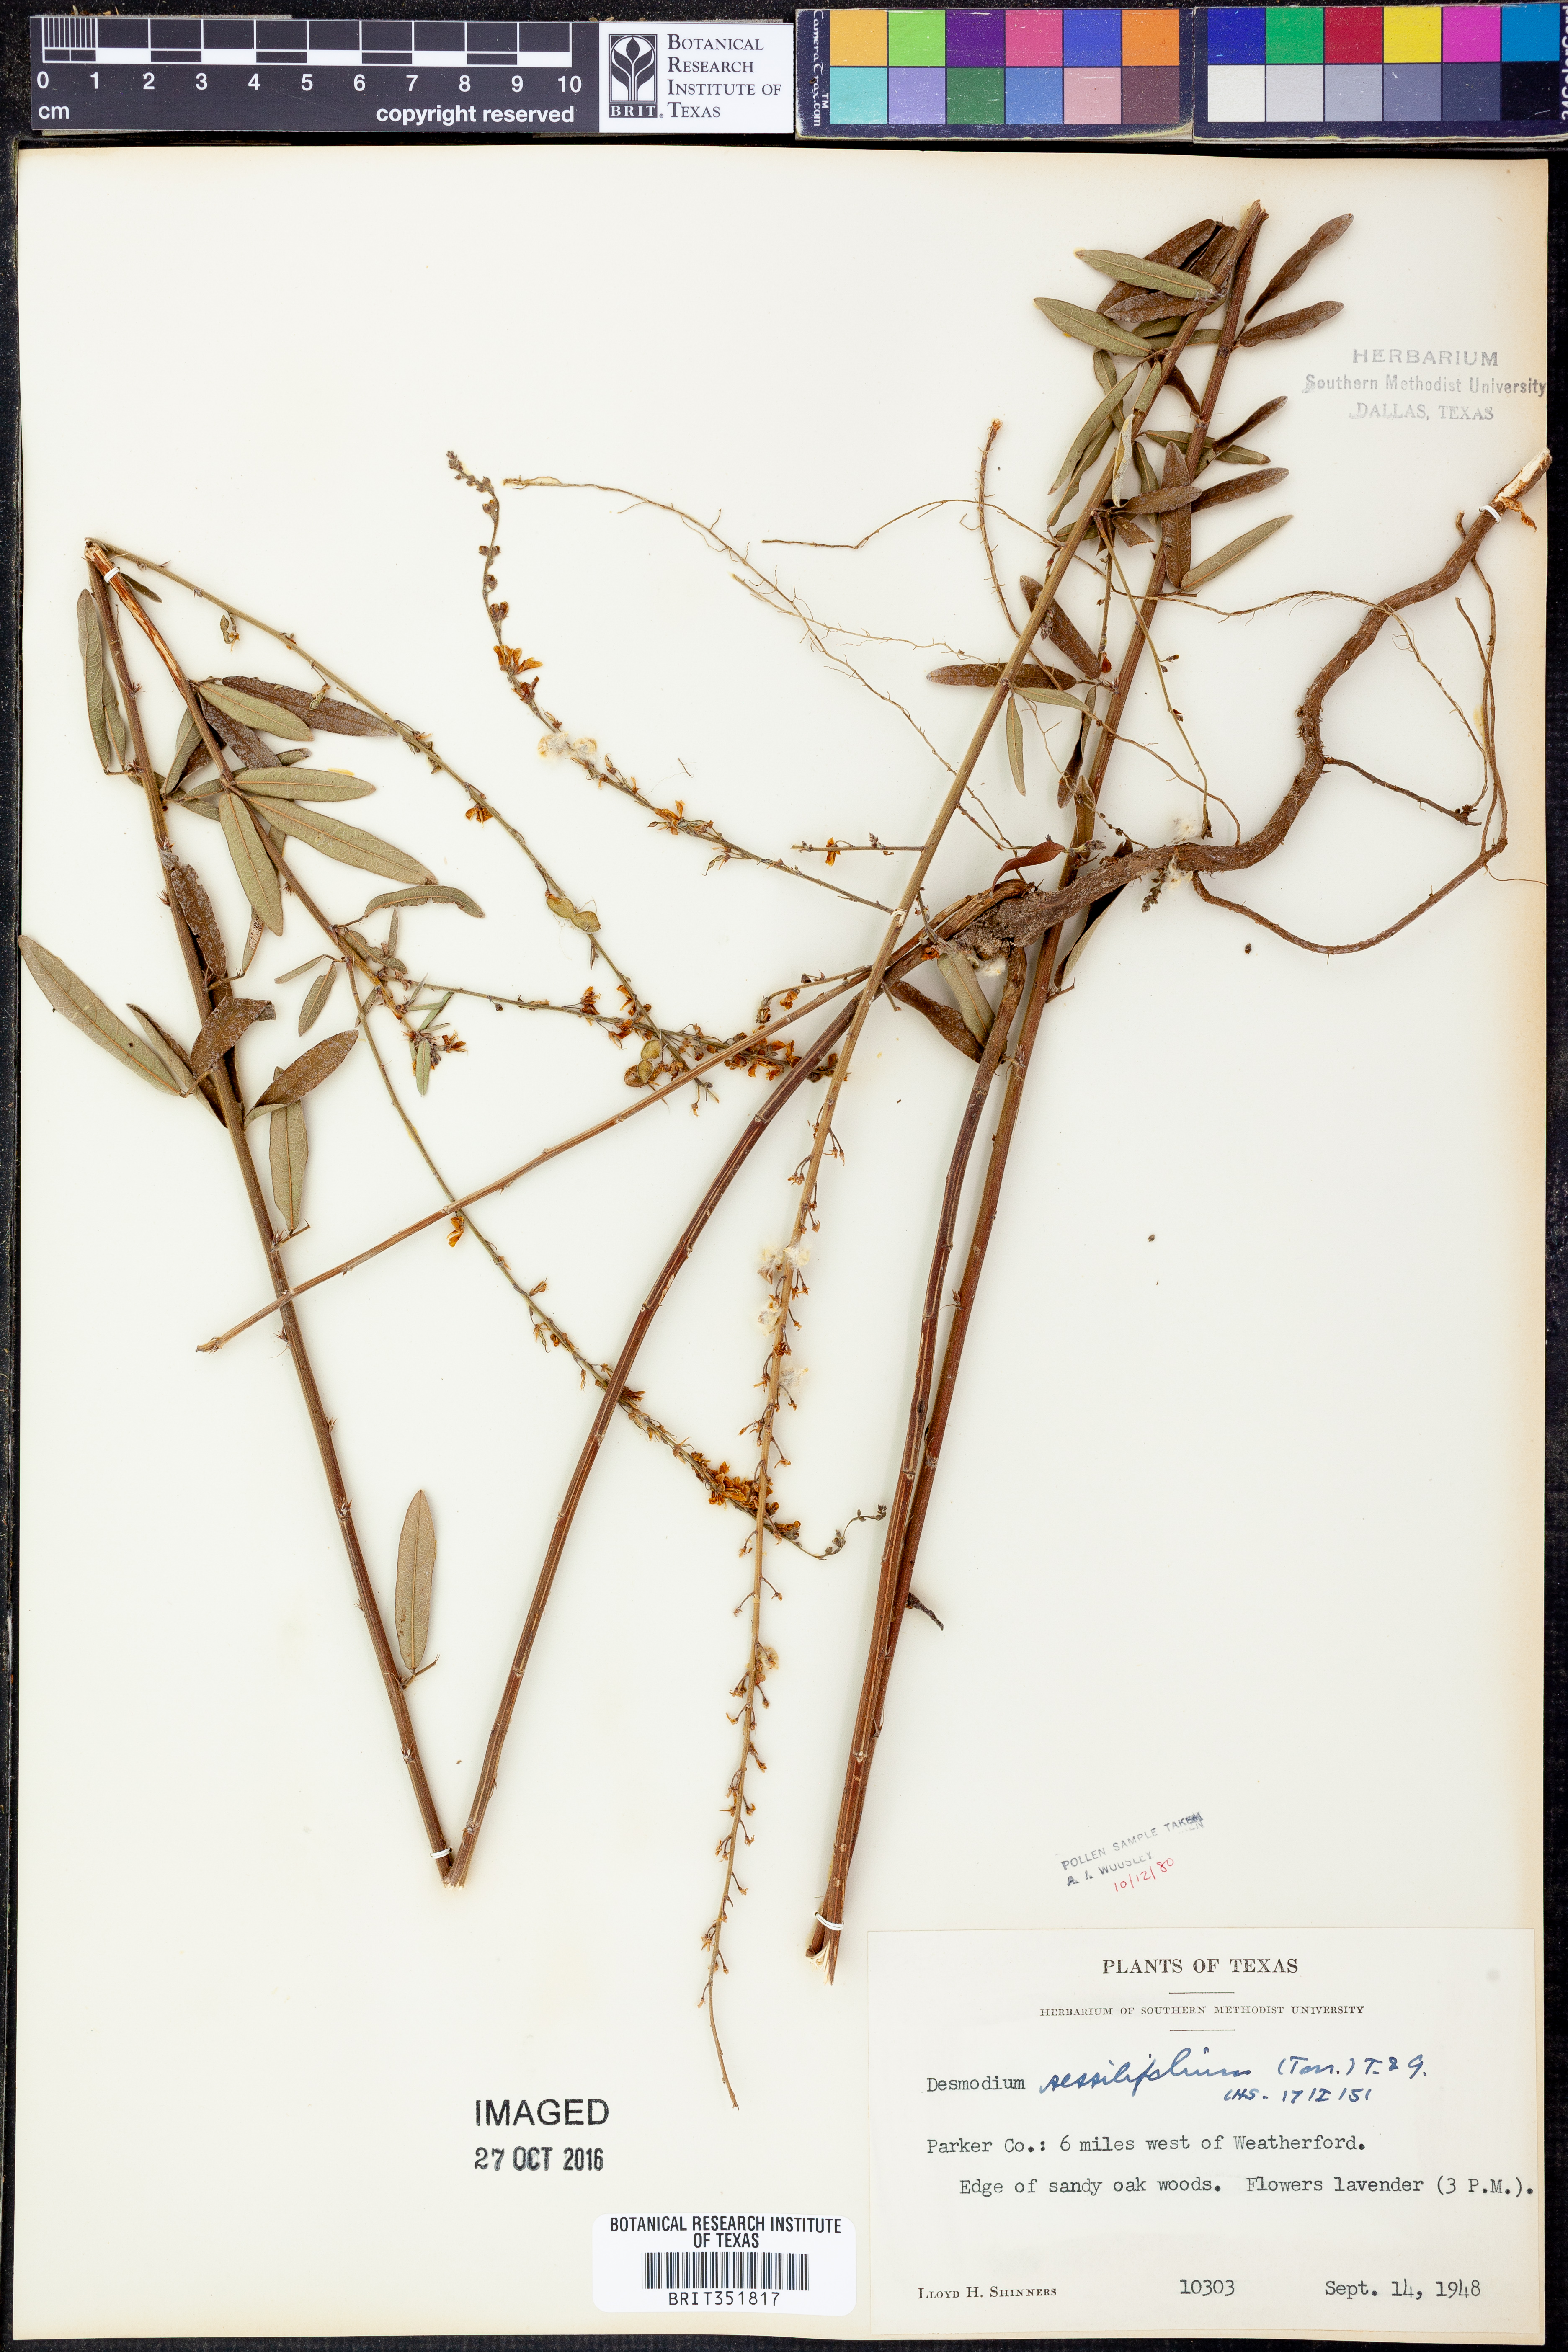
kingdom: Plantae
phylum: Tracheophyta
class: Magnoliopsida
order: Fabales
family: Fabaceae
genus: Desmodium
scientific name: Desmodium sessilifolium
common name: Sessile tick-clover
